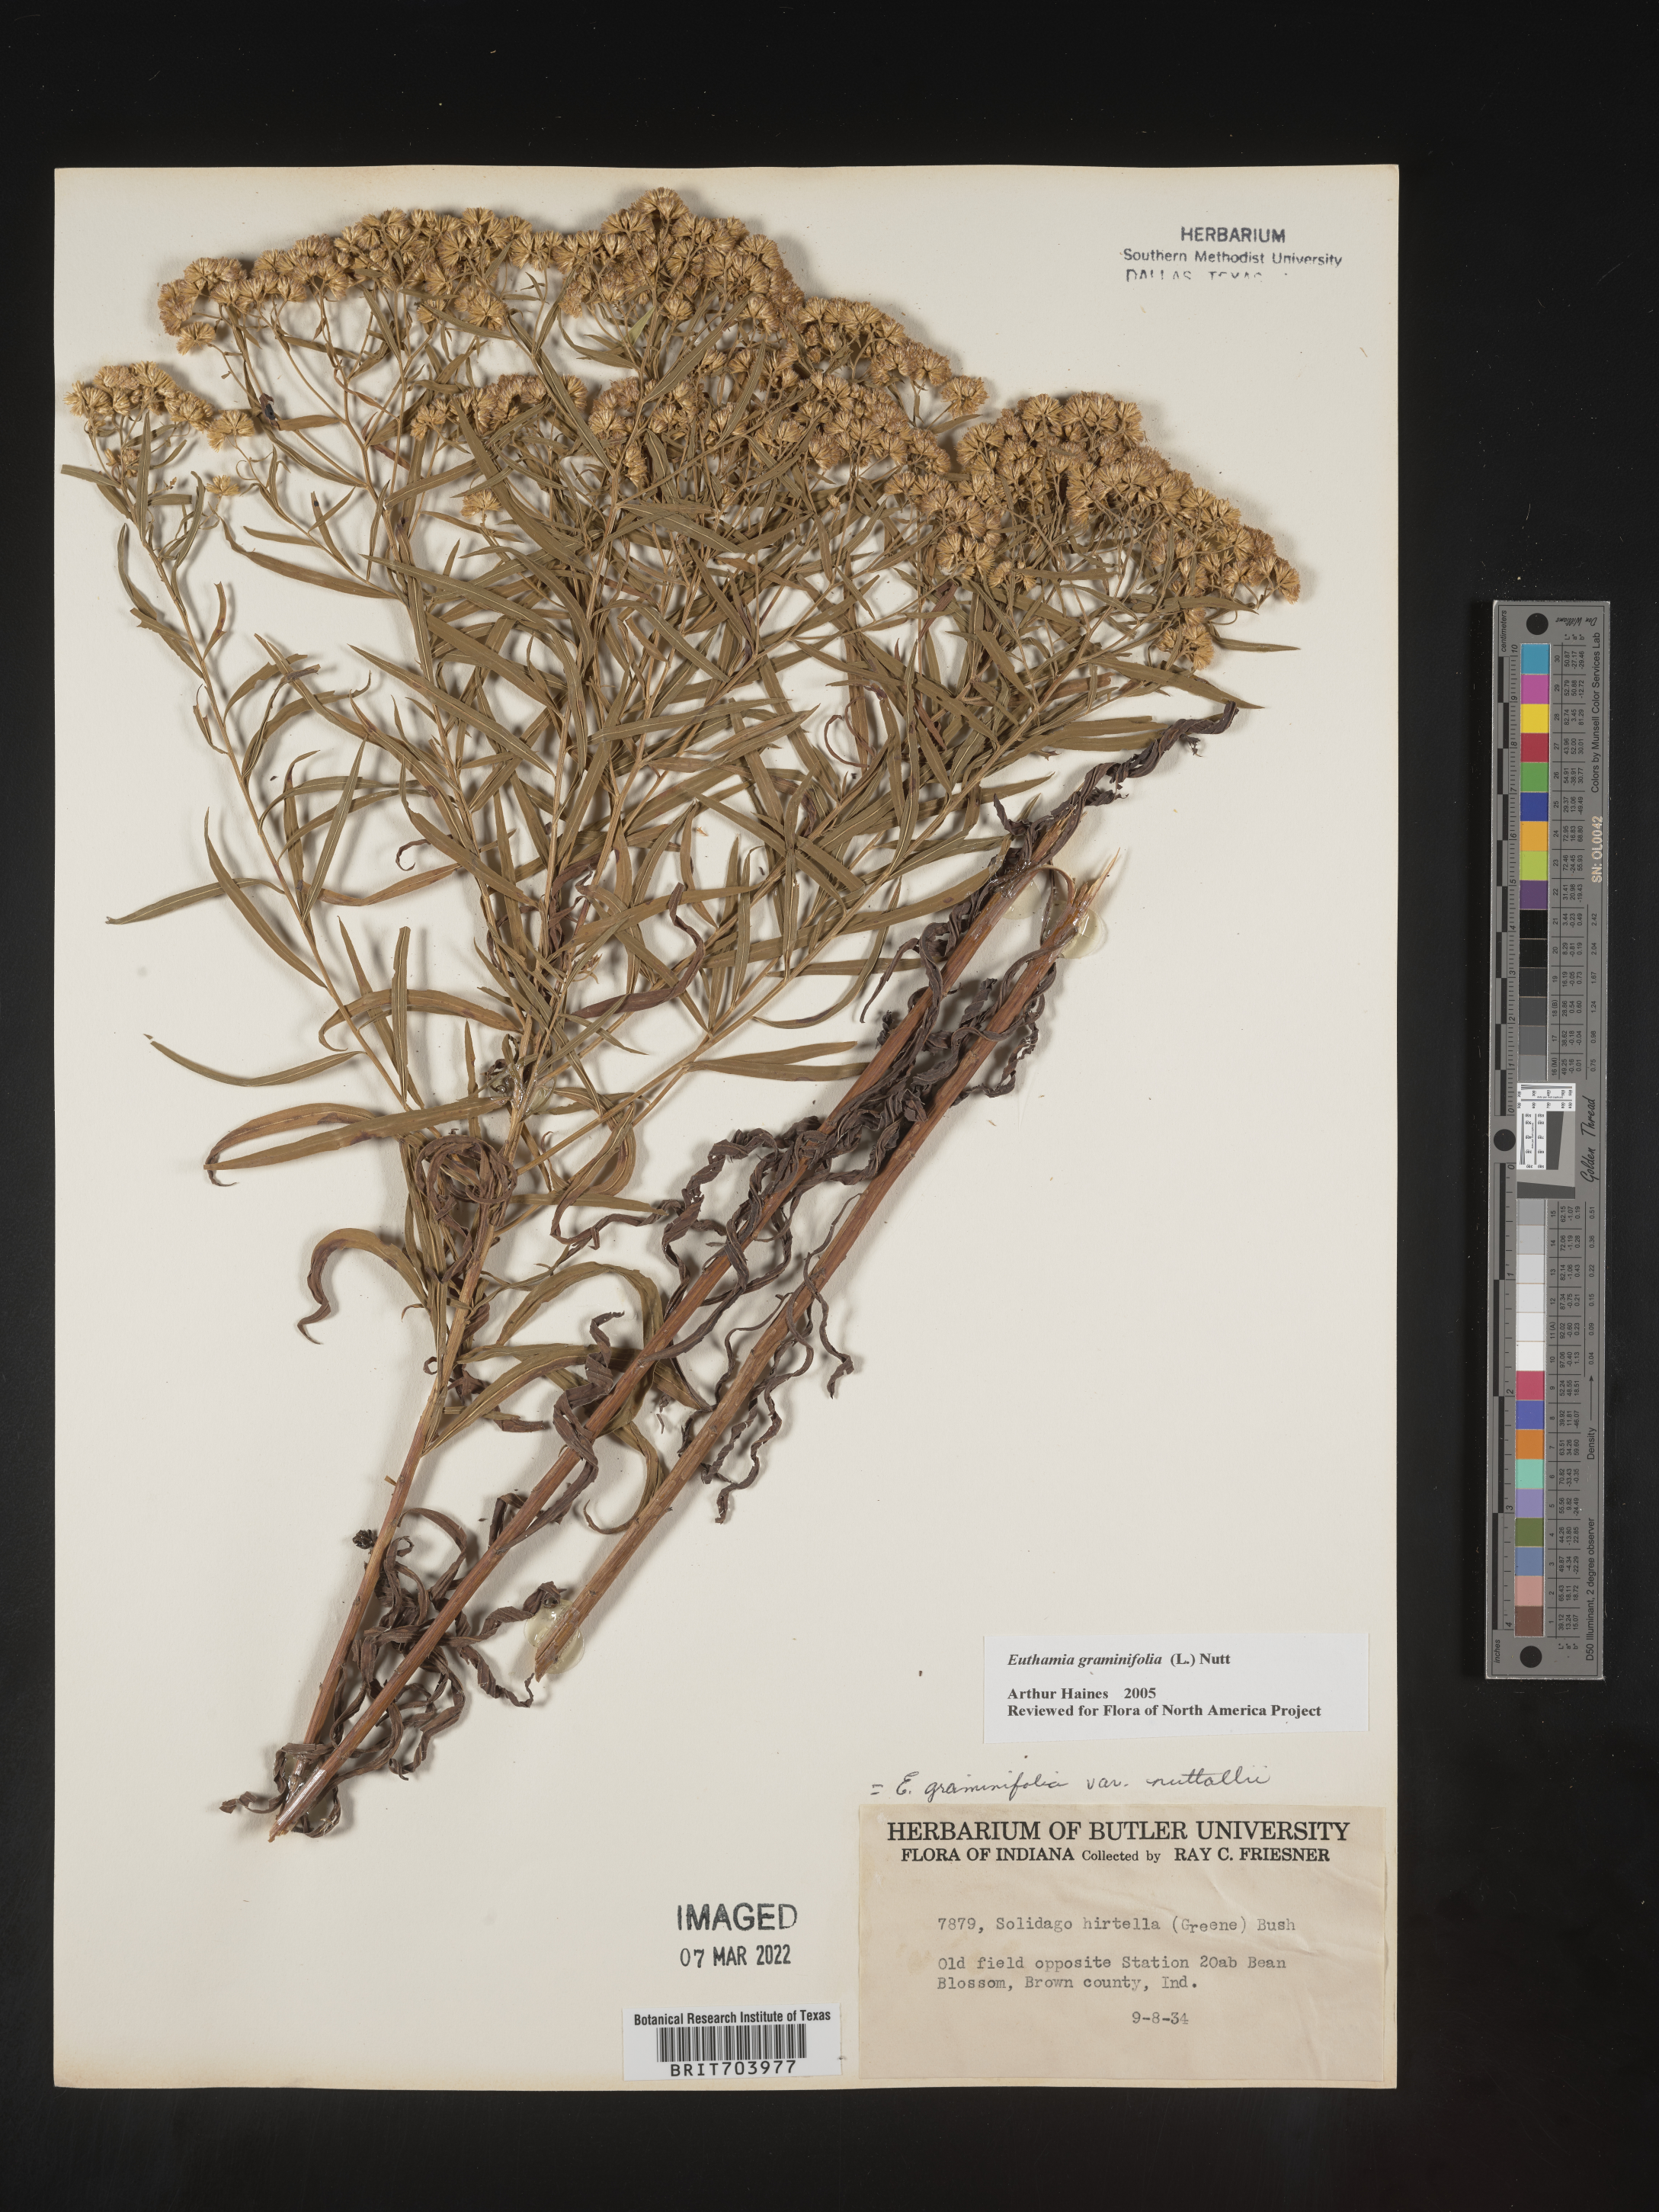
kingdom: Plantae
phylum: Tracheophyta
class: Magnoliopsida
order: Asterales
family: Asteraceae
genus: Euthamia
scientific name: Euthamia graminifolia
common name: Common goldentop
